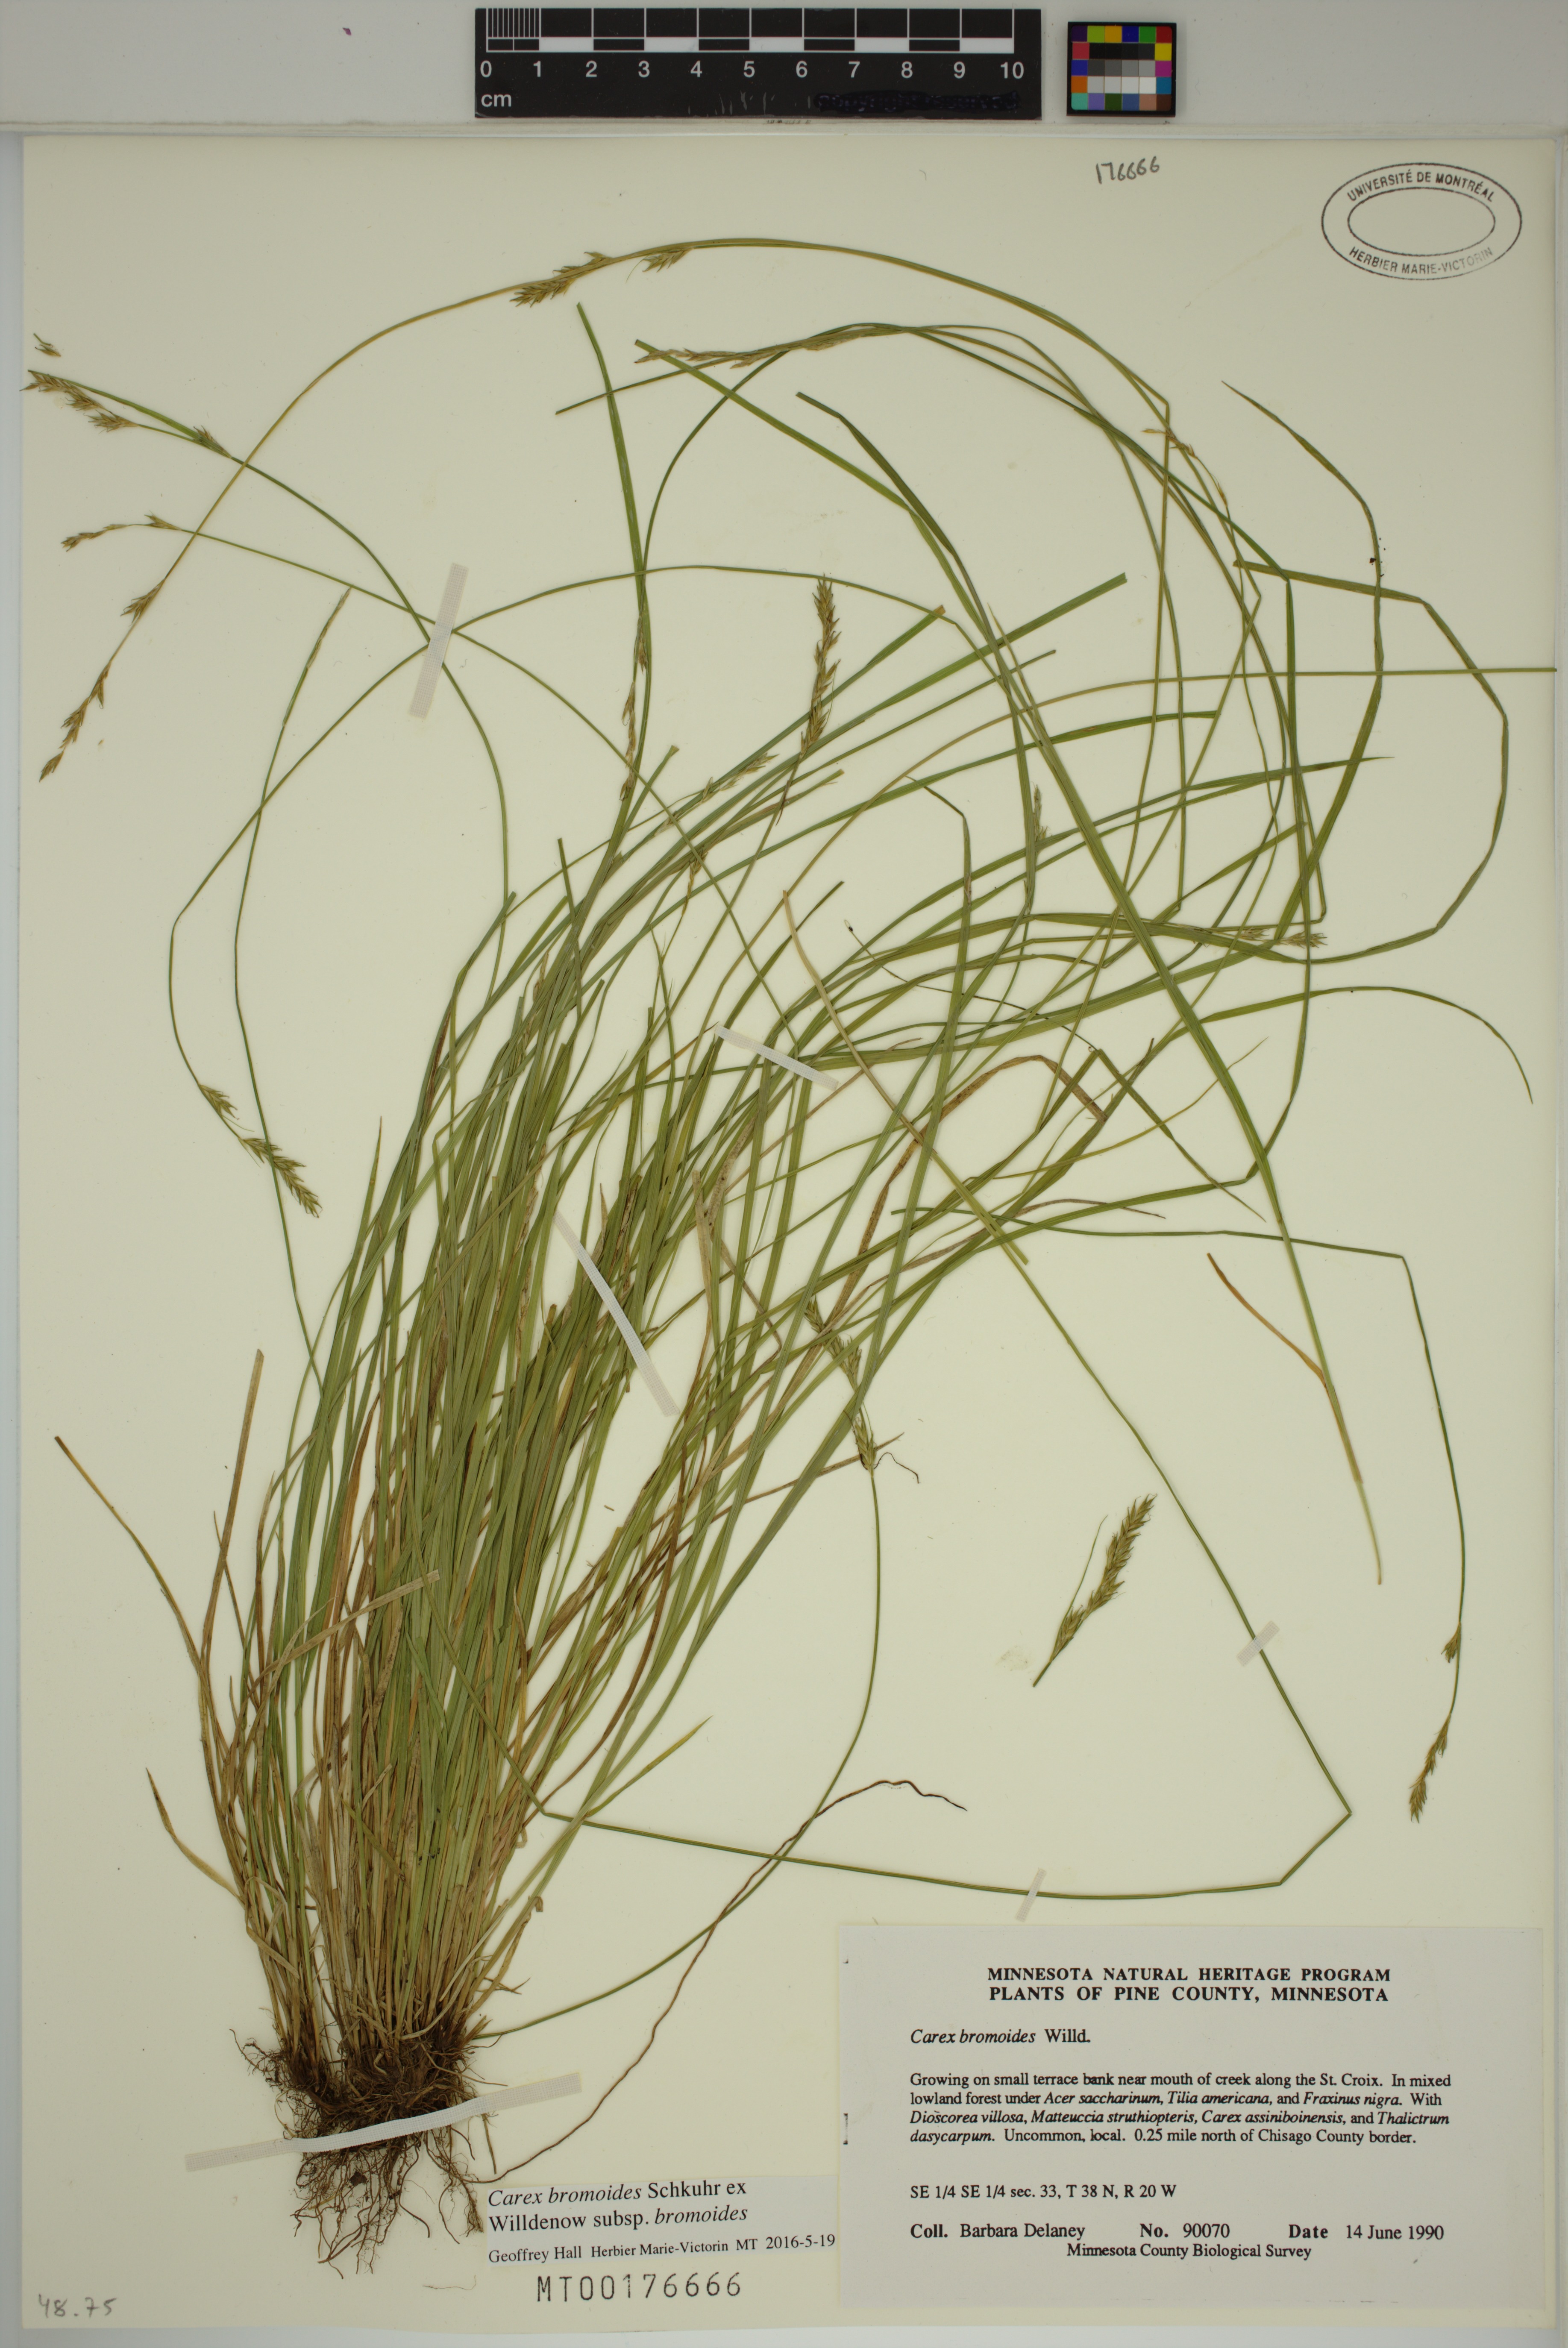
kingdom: Plantae
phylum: Tracheophyta
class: Liliopsida
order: Poales
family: Cyperaceae
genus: Carex
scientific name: Carex bromoides
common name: Brome hummock sedge
